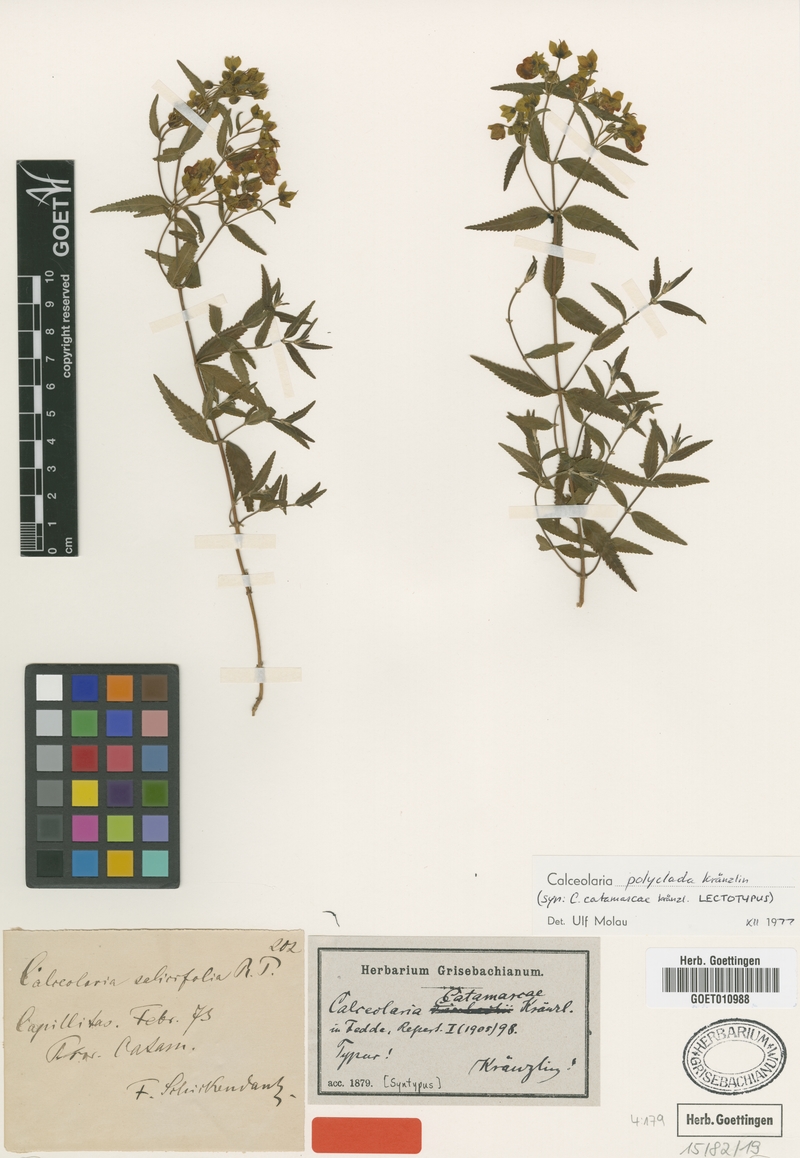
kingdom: Plantae
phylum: Tracheophyta
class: Magnoliopsida
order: Lamiales
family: Calceolariaceae
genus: Calceolaria
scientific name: Calceolaria polyclada
